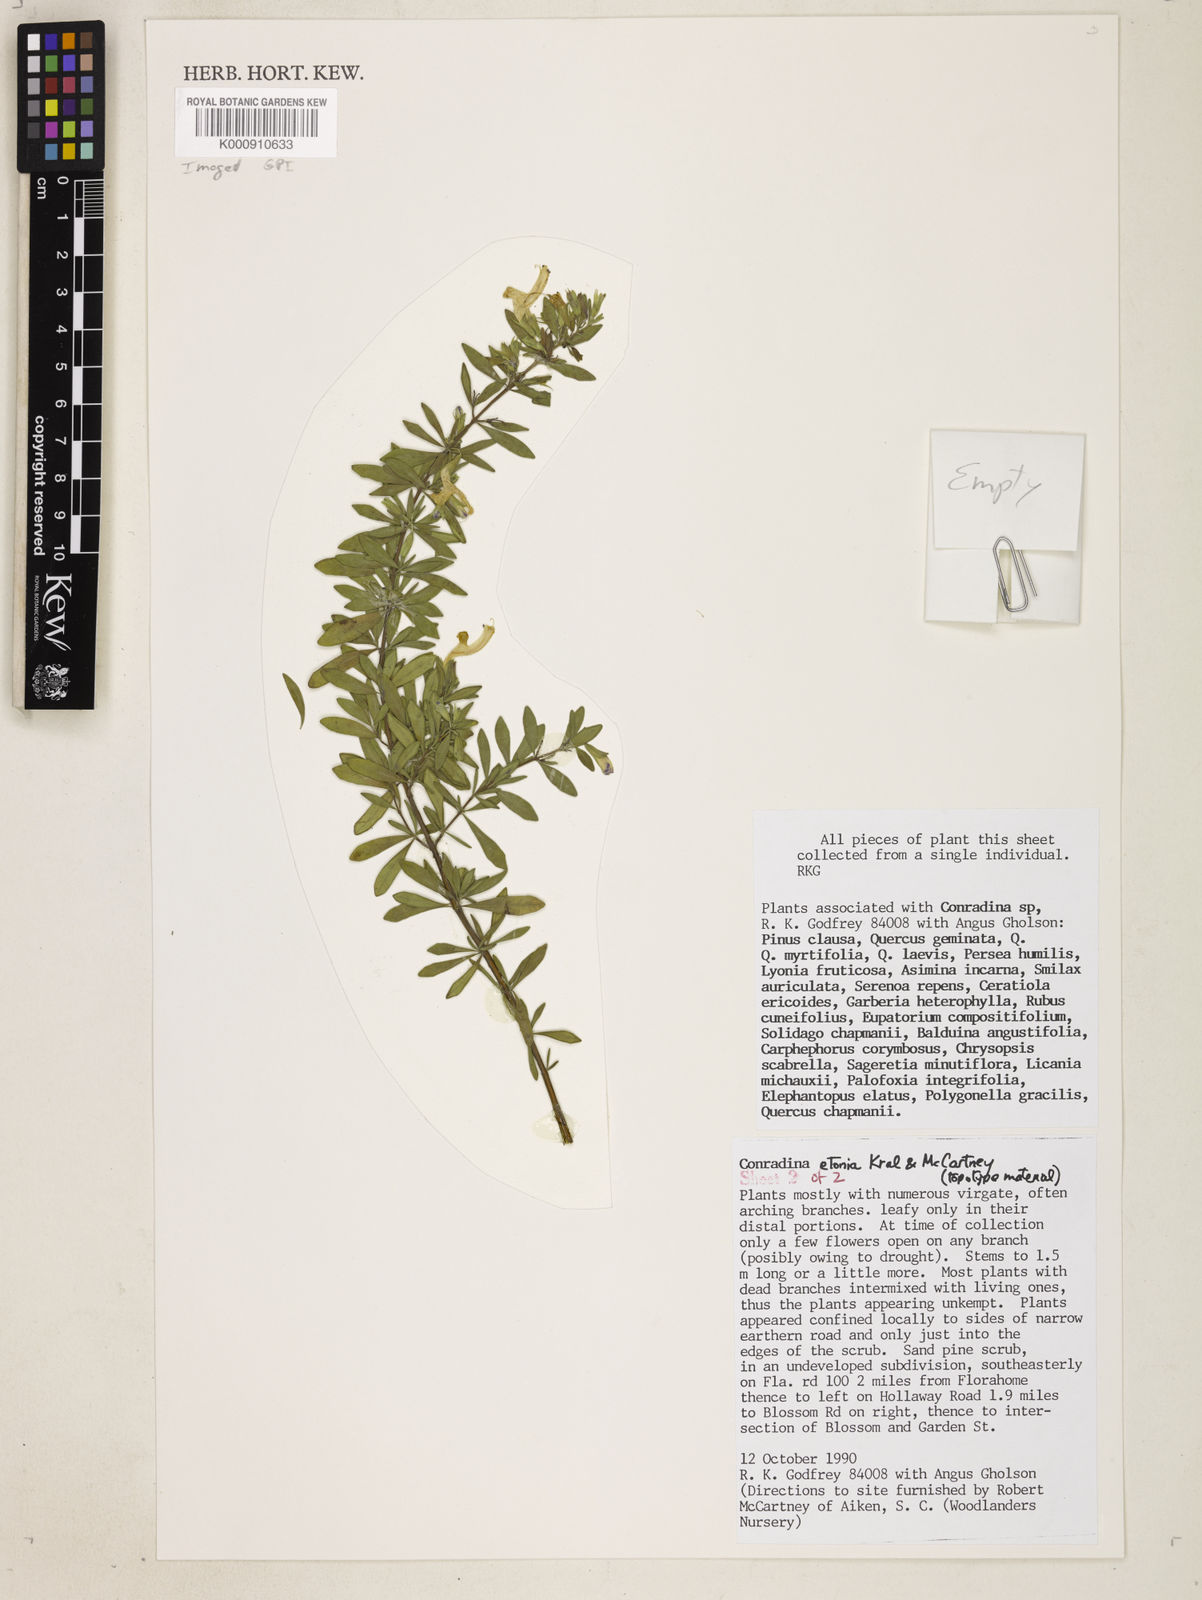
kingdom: Plantae
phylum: Tracheophyta
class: Magnoliopsida
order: Lamiales
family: Lamiaceae
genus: Conradina
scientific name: Conradina grandiflora
